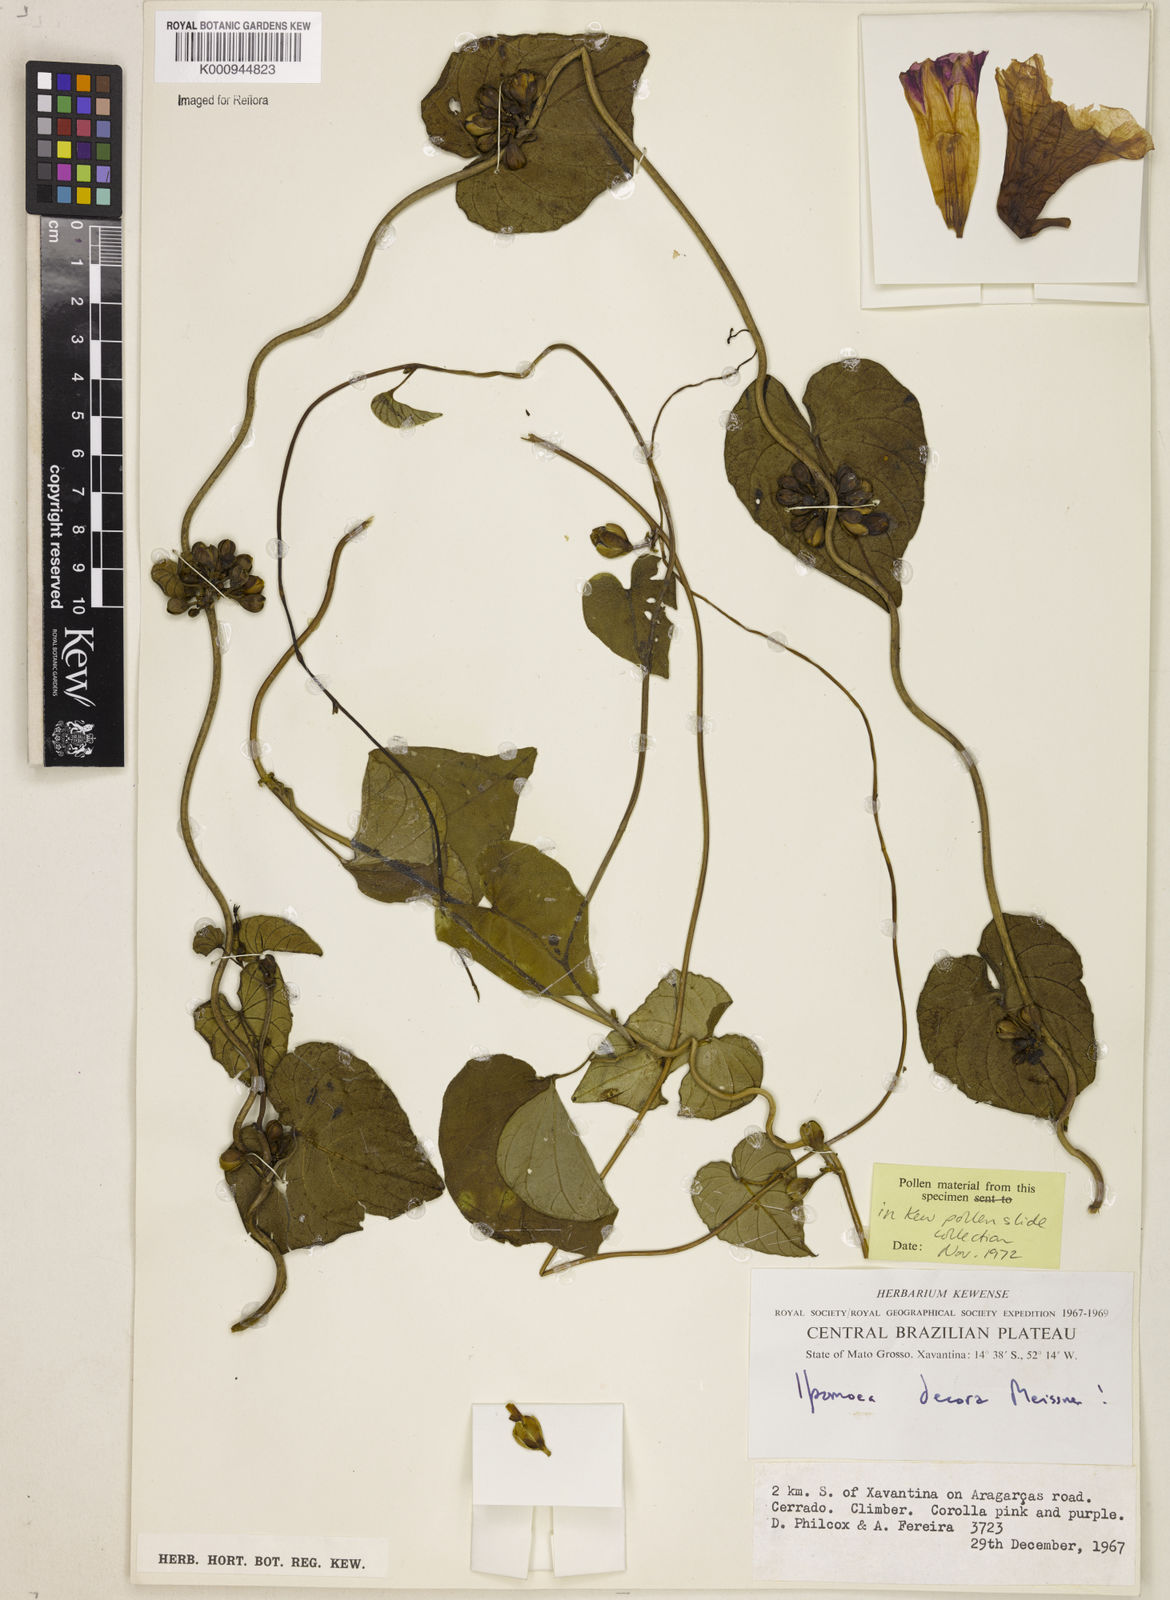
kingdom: Plantae
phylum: Tracheophyta
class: Magnoliopsida
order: Solanales
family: Convolvulaceae
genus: Ipomoea
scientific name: Ipomoea goyazensis
